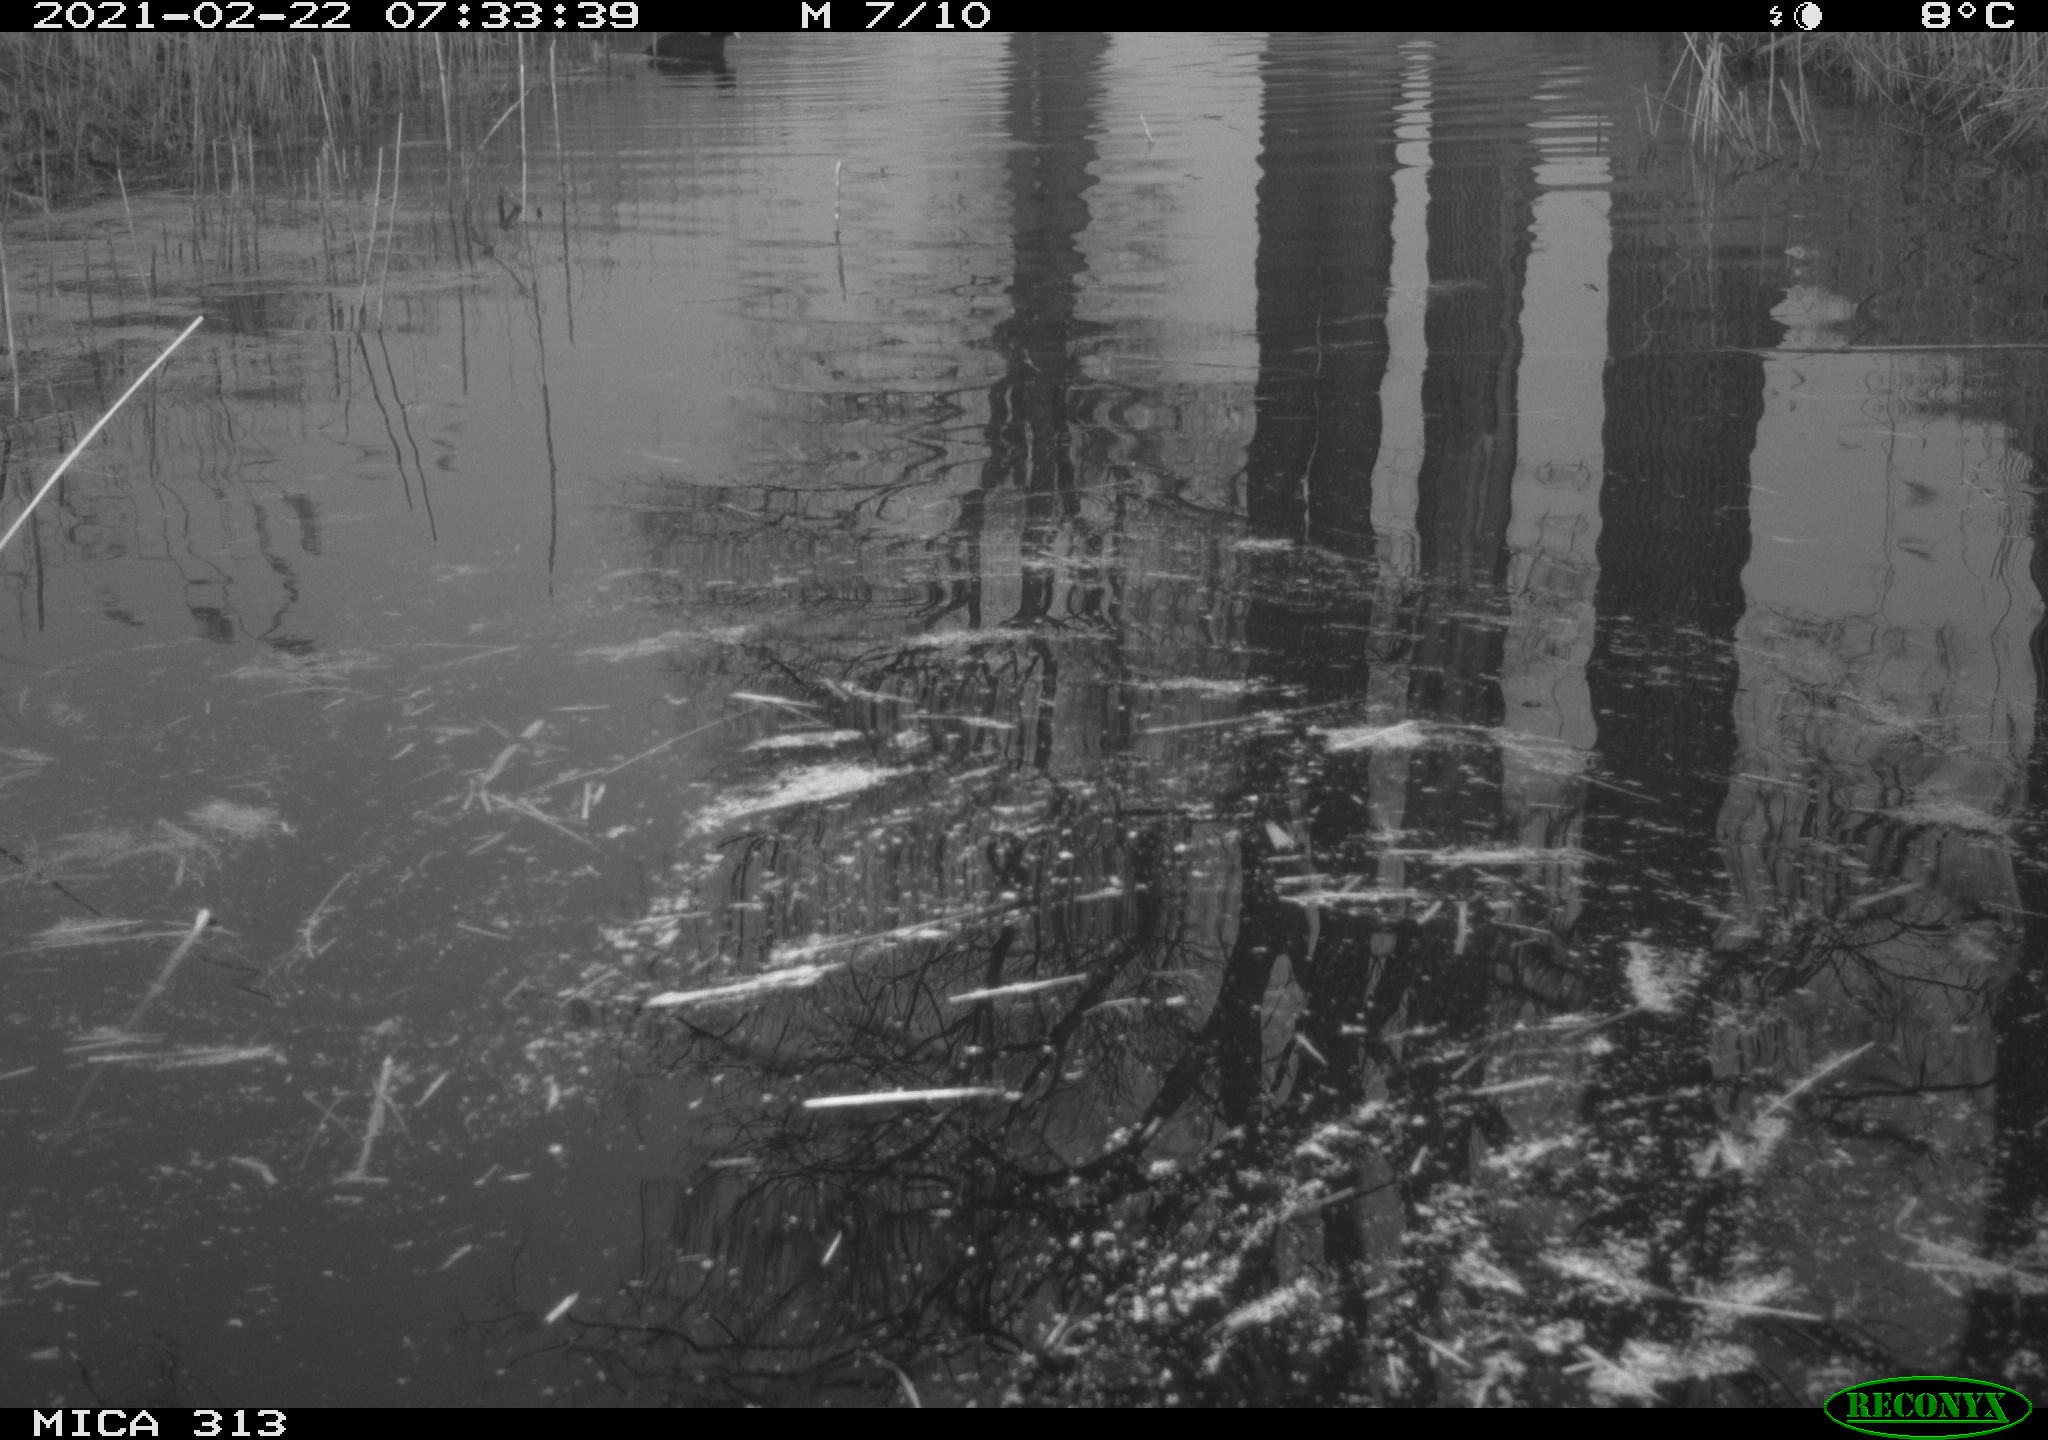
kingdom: Animalia
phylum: Chordata
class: Aves
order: Gruiformes
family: Rallidae
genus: Gallinula
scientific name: Gallinula chloropus
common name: Common moorhen
